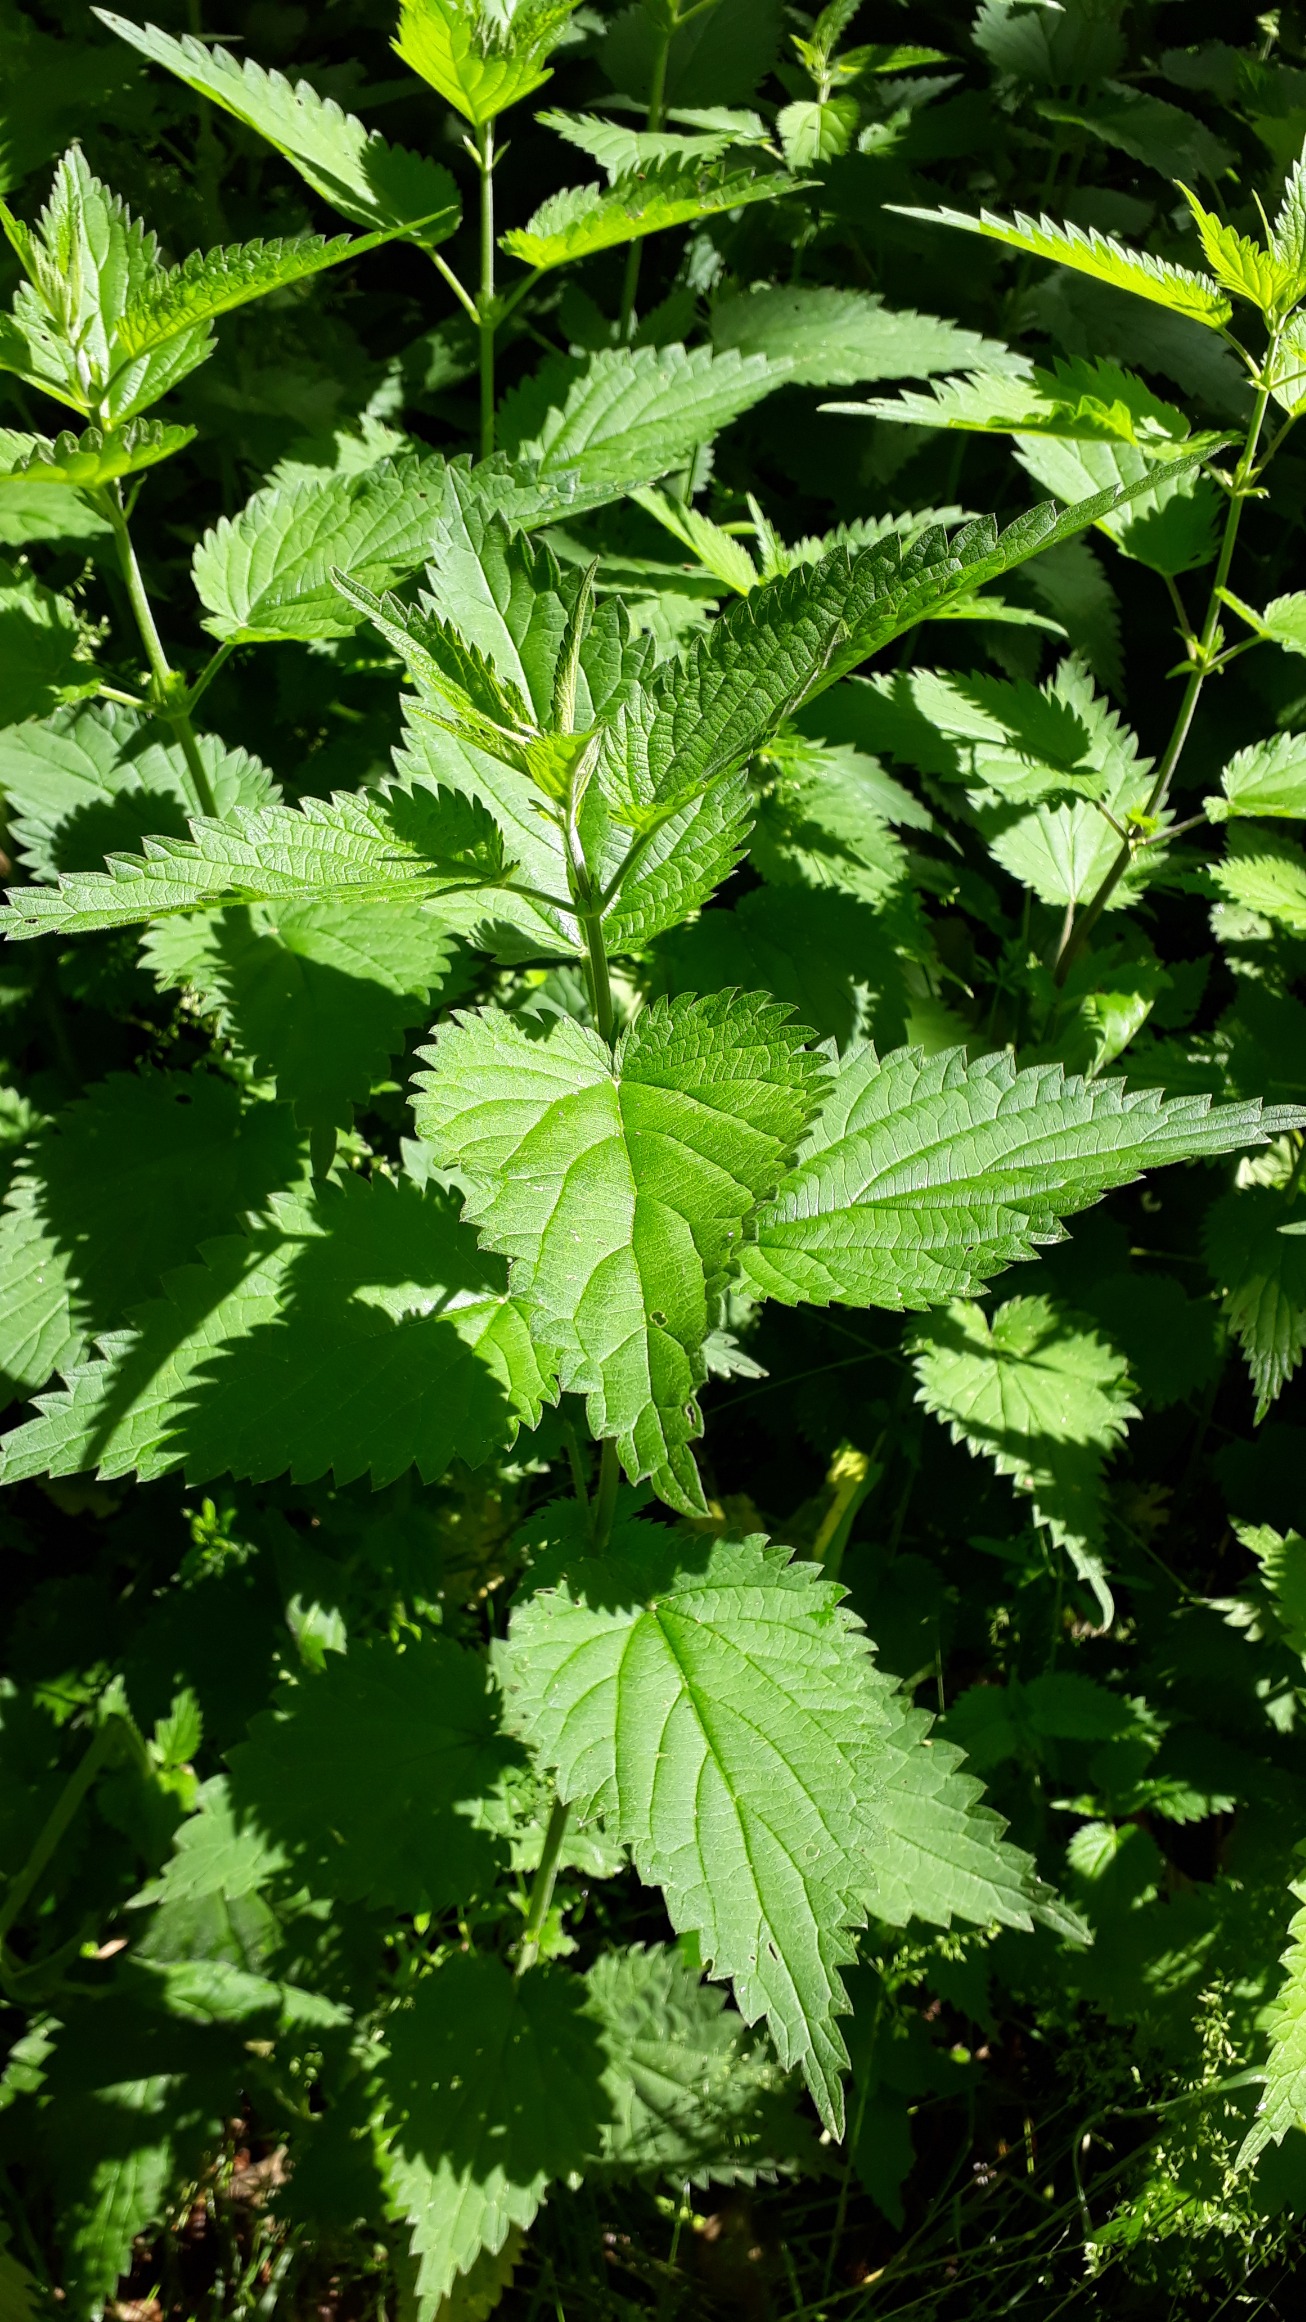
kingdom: Plantae
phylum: Tracheophyta
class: Magnoliopsida
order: Rosales
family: Urticaceae
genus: Urtica
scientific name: Urtica dioica
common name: Stor nælde
